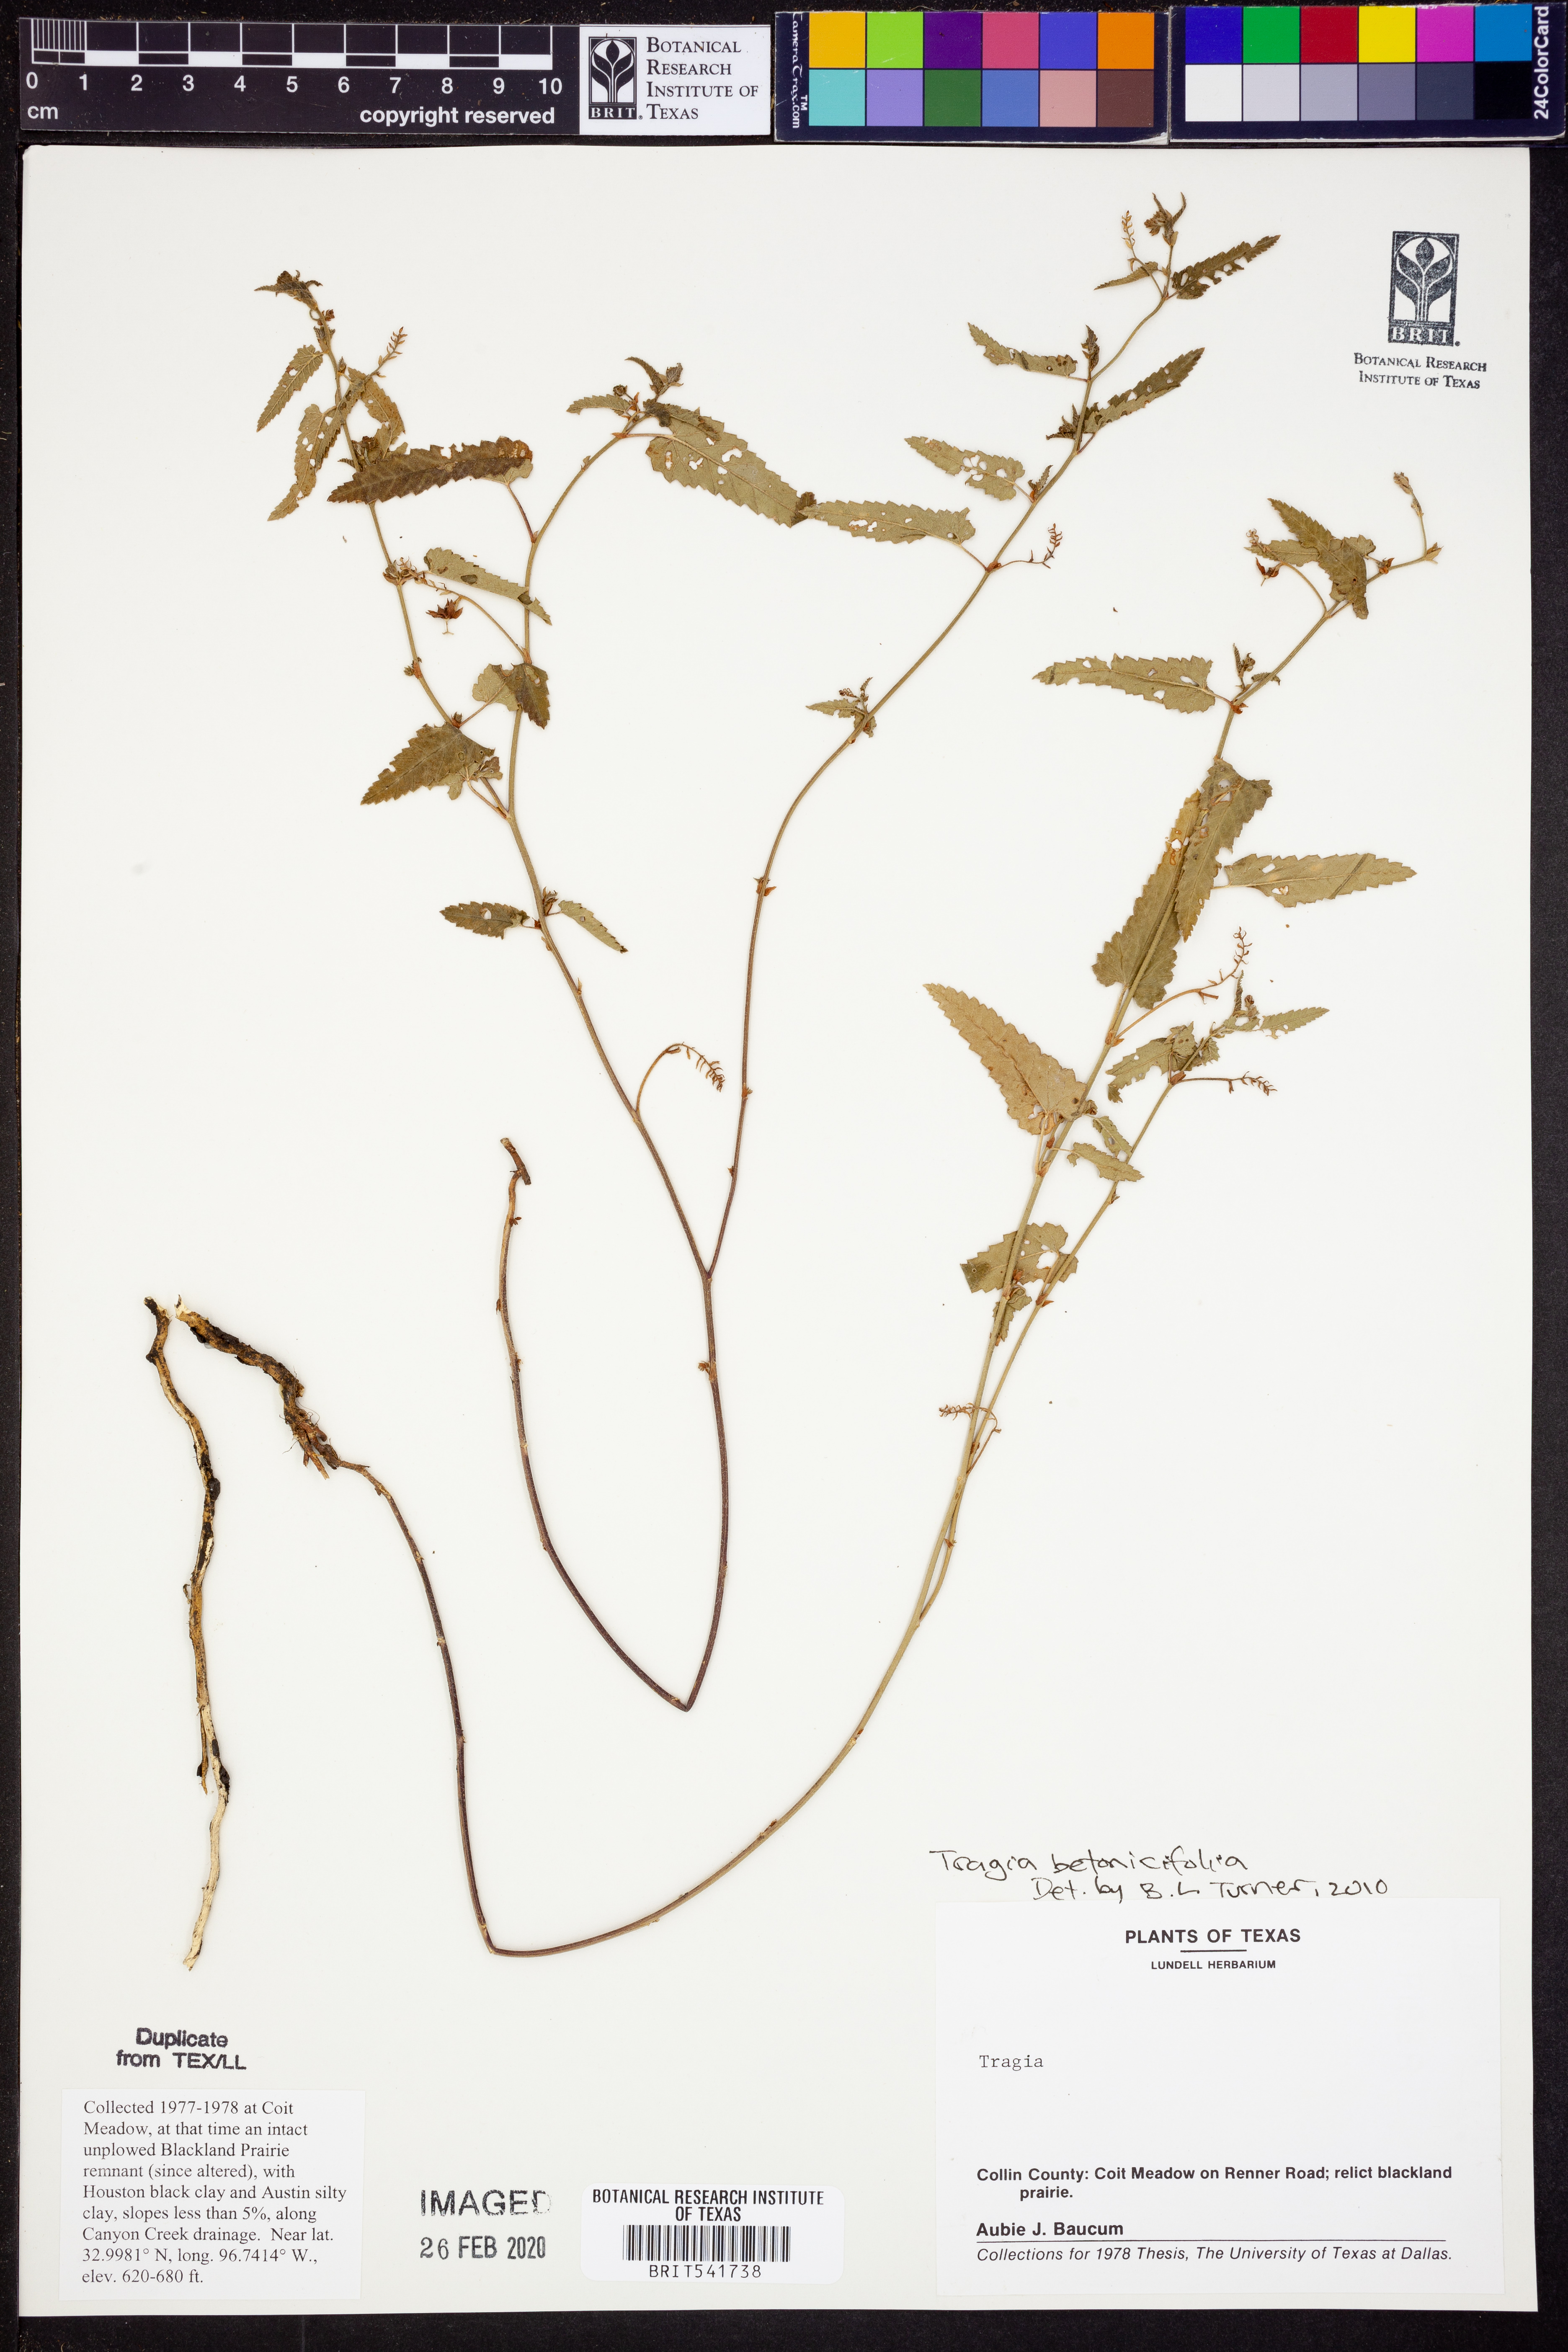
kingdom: Plantae
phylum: Tracheophyta
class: Magnoliopsida
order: Malpighiales
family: Euphorbiaceae
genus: Tragia
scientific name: Tragia betonicifolia
